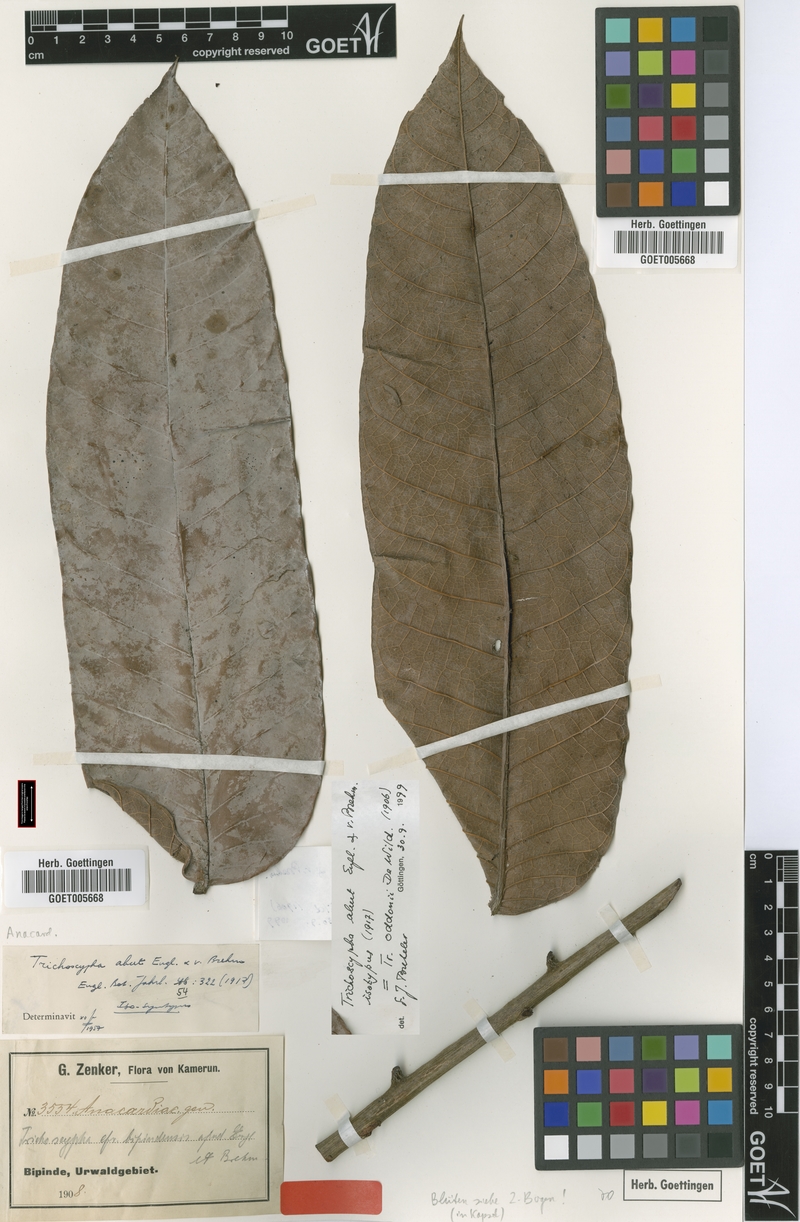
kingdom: Plantae
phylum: Tracheophyta
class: Magnoliopsida
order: Sapindales
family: Anacardiaceae
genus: Trichoscypha
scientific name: Trichoscypha oddonii
